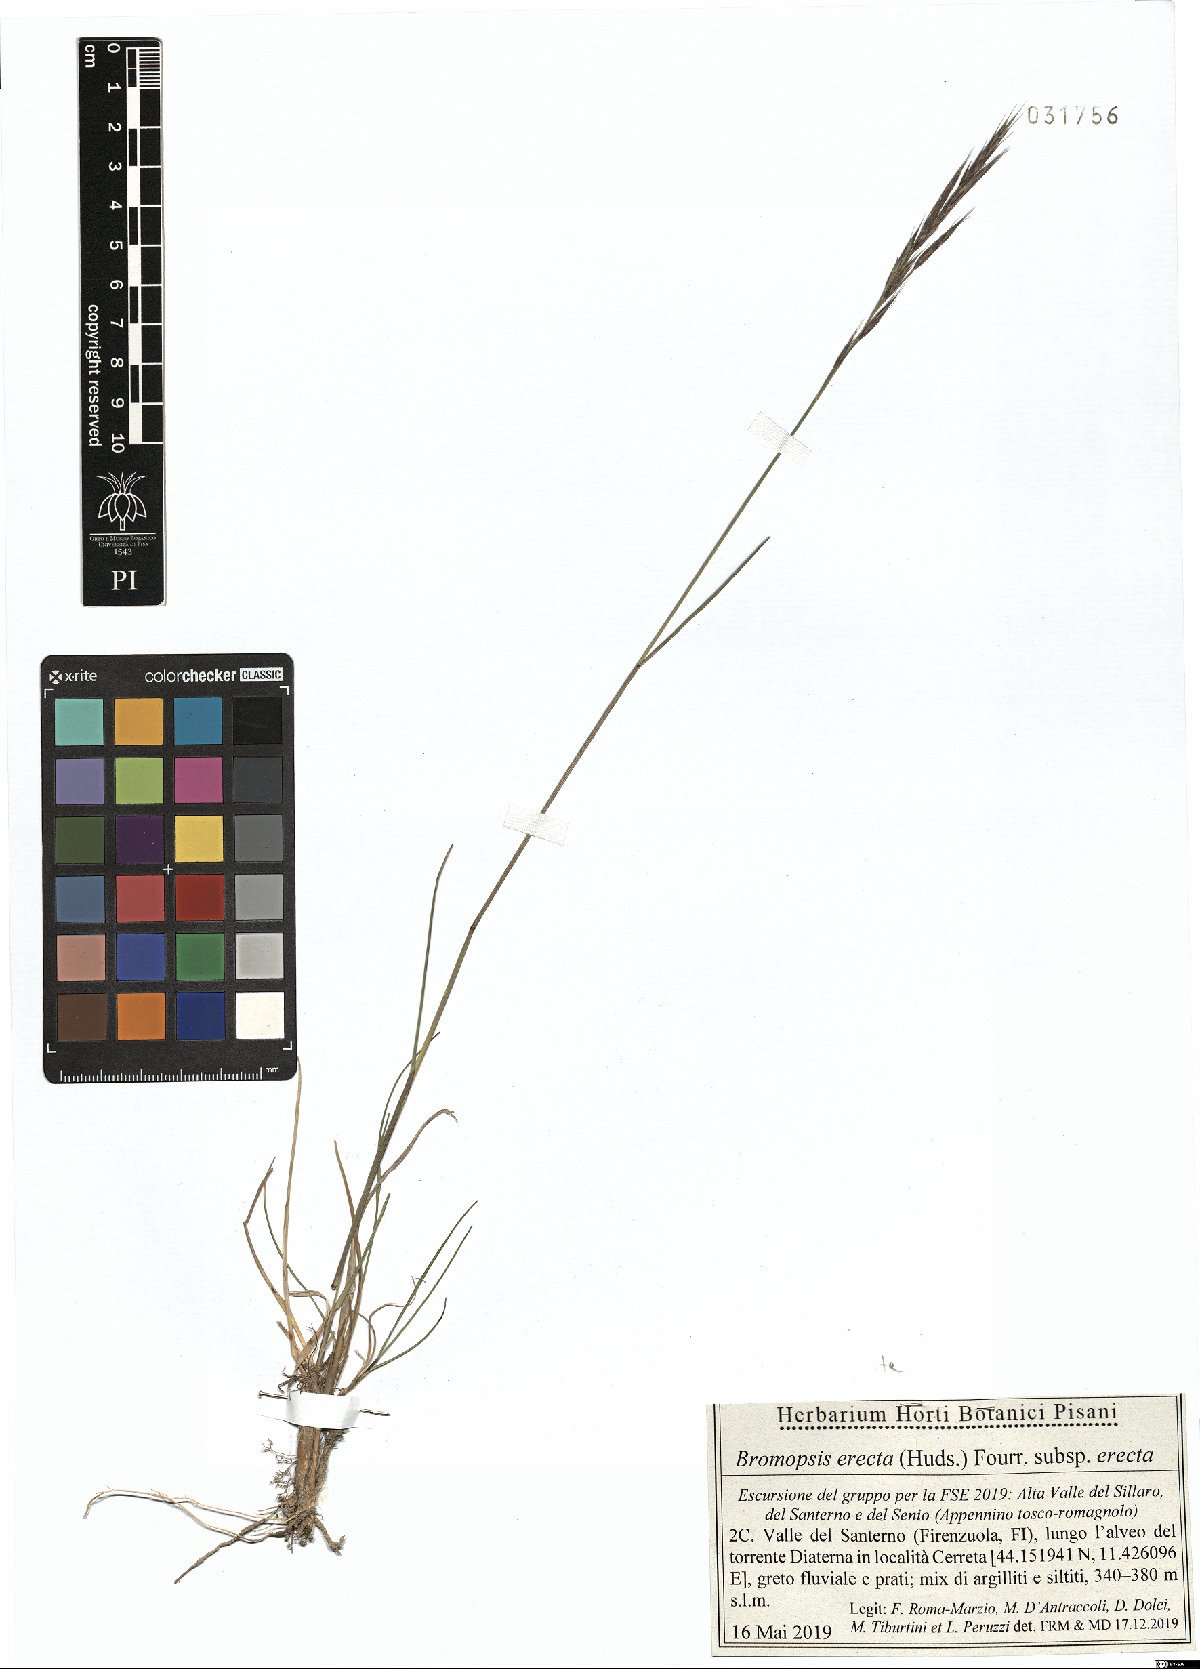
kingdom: Plantae
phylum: Tracheophyta
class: Liliopsida
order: Poales
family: Poaceae
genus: Bromus
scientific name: Bromus erectus
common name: Erect brome
